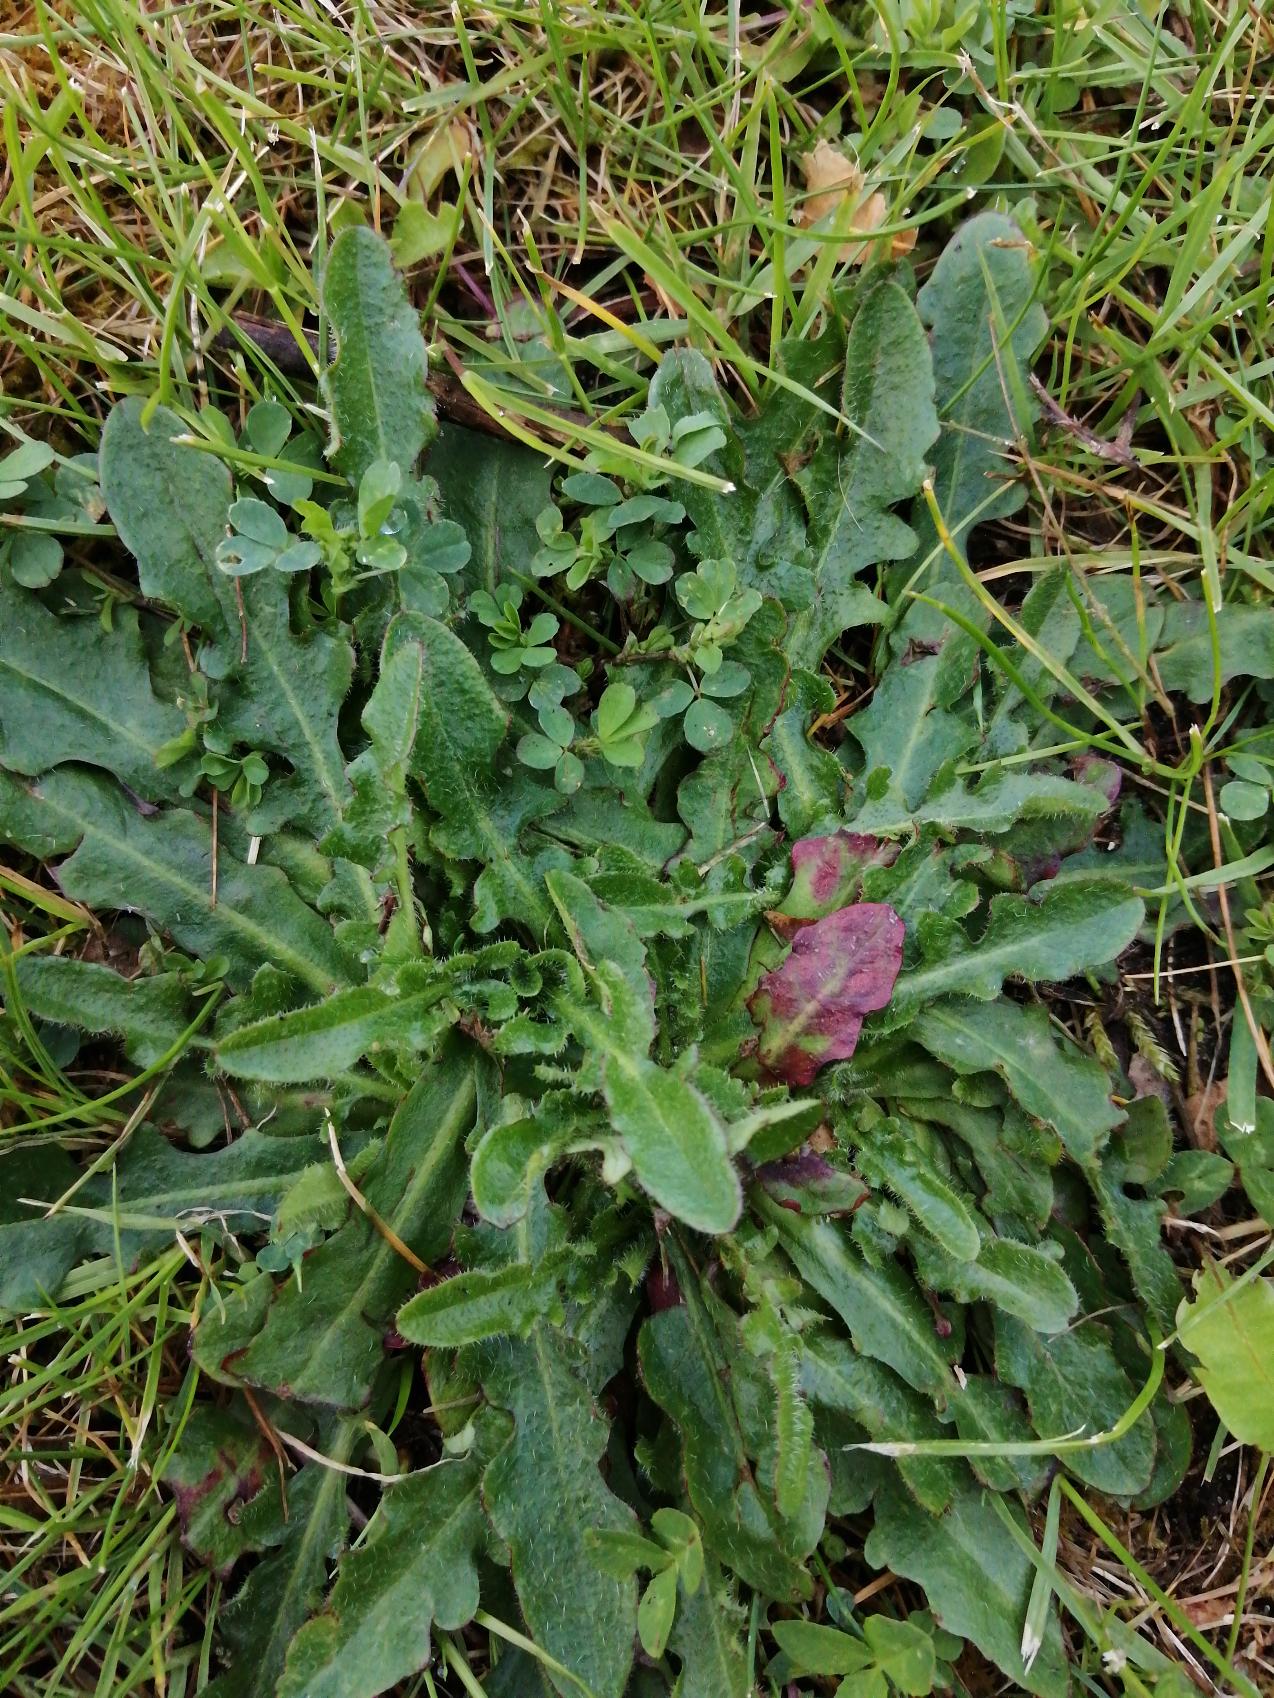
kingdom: Plantae
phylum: Tracheophyta
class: Magnoliopsida
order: Asterales
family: Asteraceae
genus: Hypochaeris
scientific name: Hypochaeris radicata
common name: Almindelig kongepen
